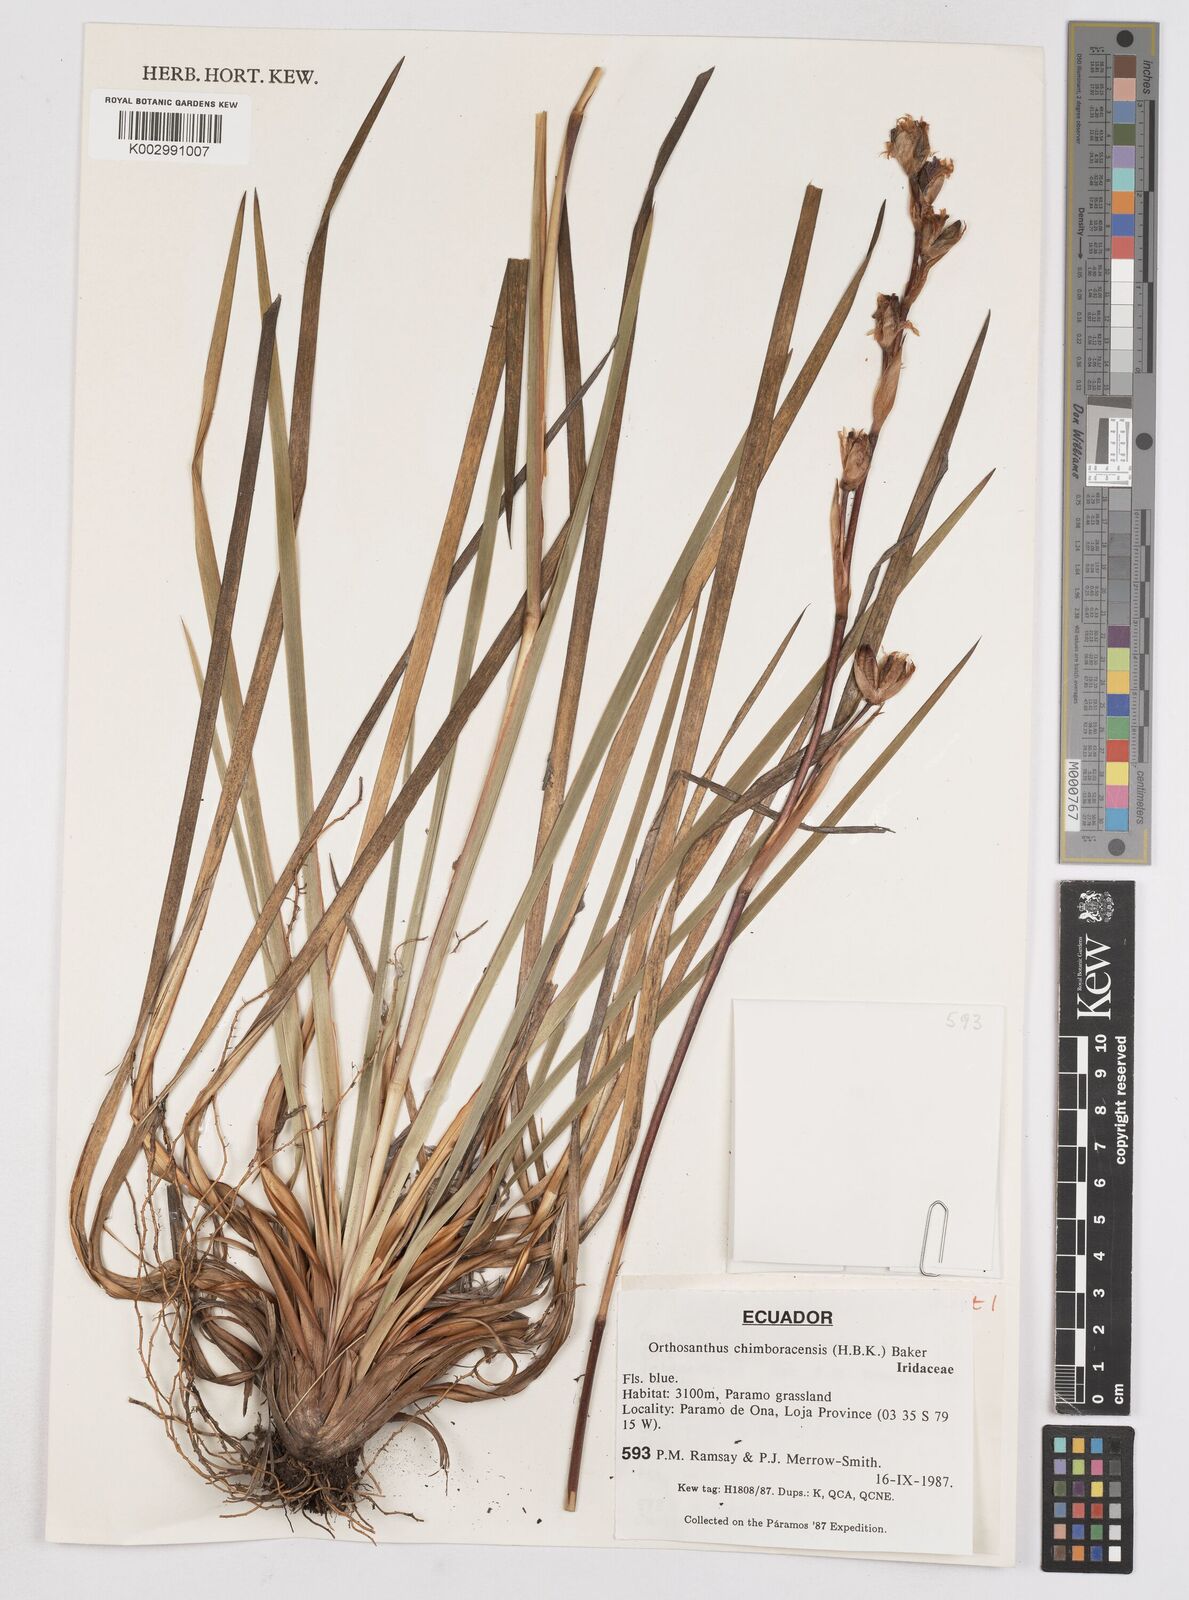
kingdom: Plantae
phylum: Tracheophyta
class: Liliopsida
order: Asparagales
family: Iridaceae
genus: Orthrosanthus
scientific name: Orthrosanthus chimboracensis
